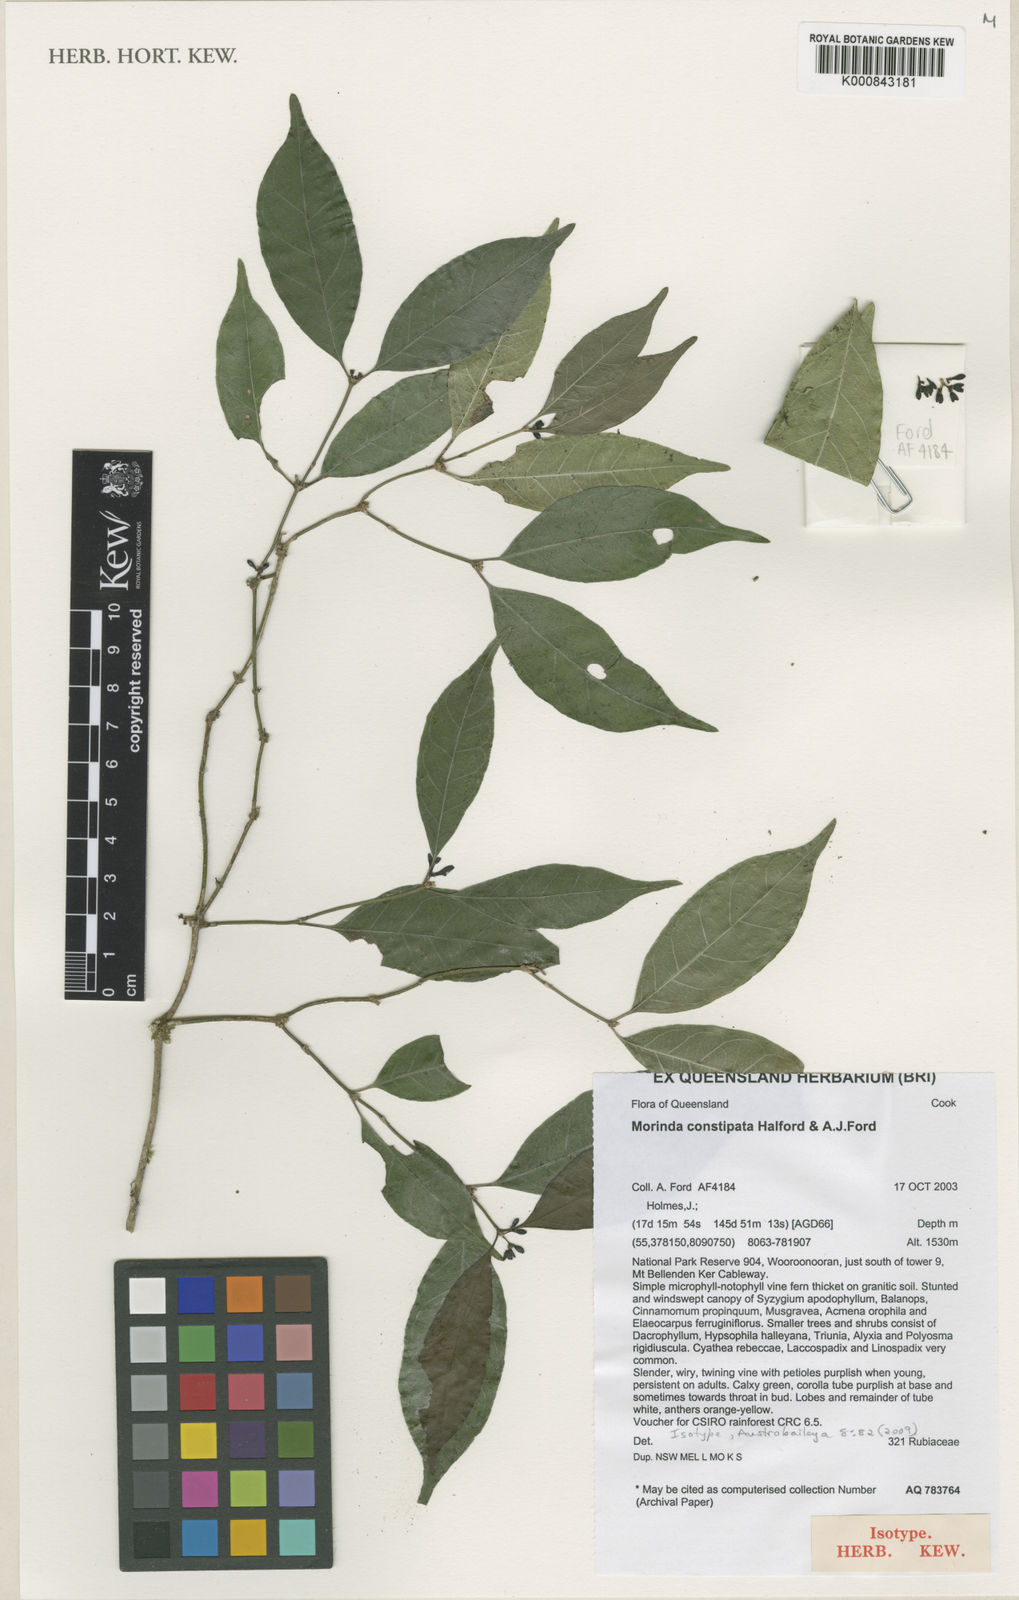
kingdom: Plantae
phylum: Tracheophyta
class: Magnoliopsida
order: Gentianales
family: Rubiaceae
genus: Gynochthodes
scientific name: Gynochthodes constipata
